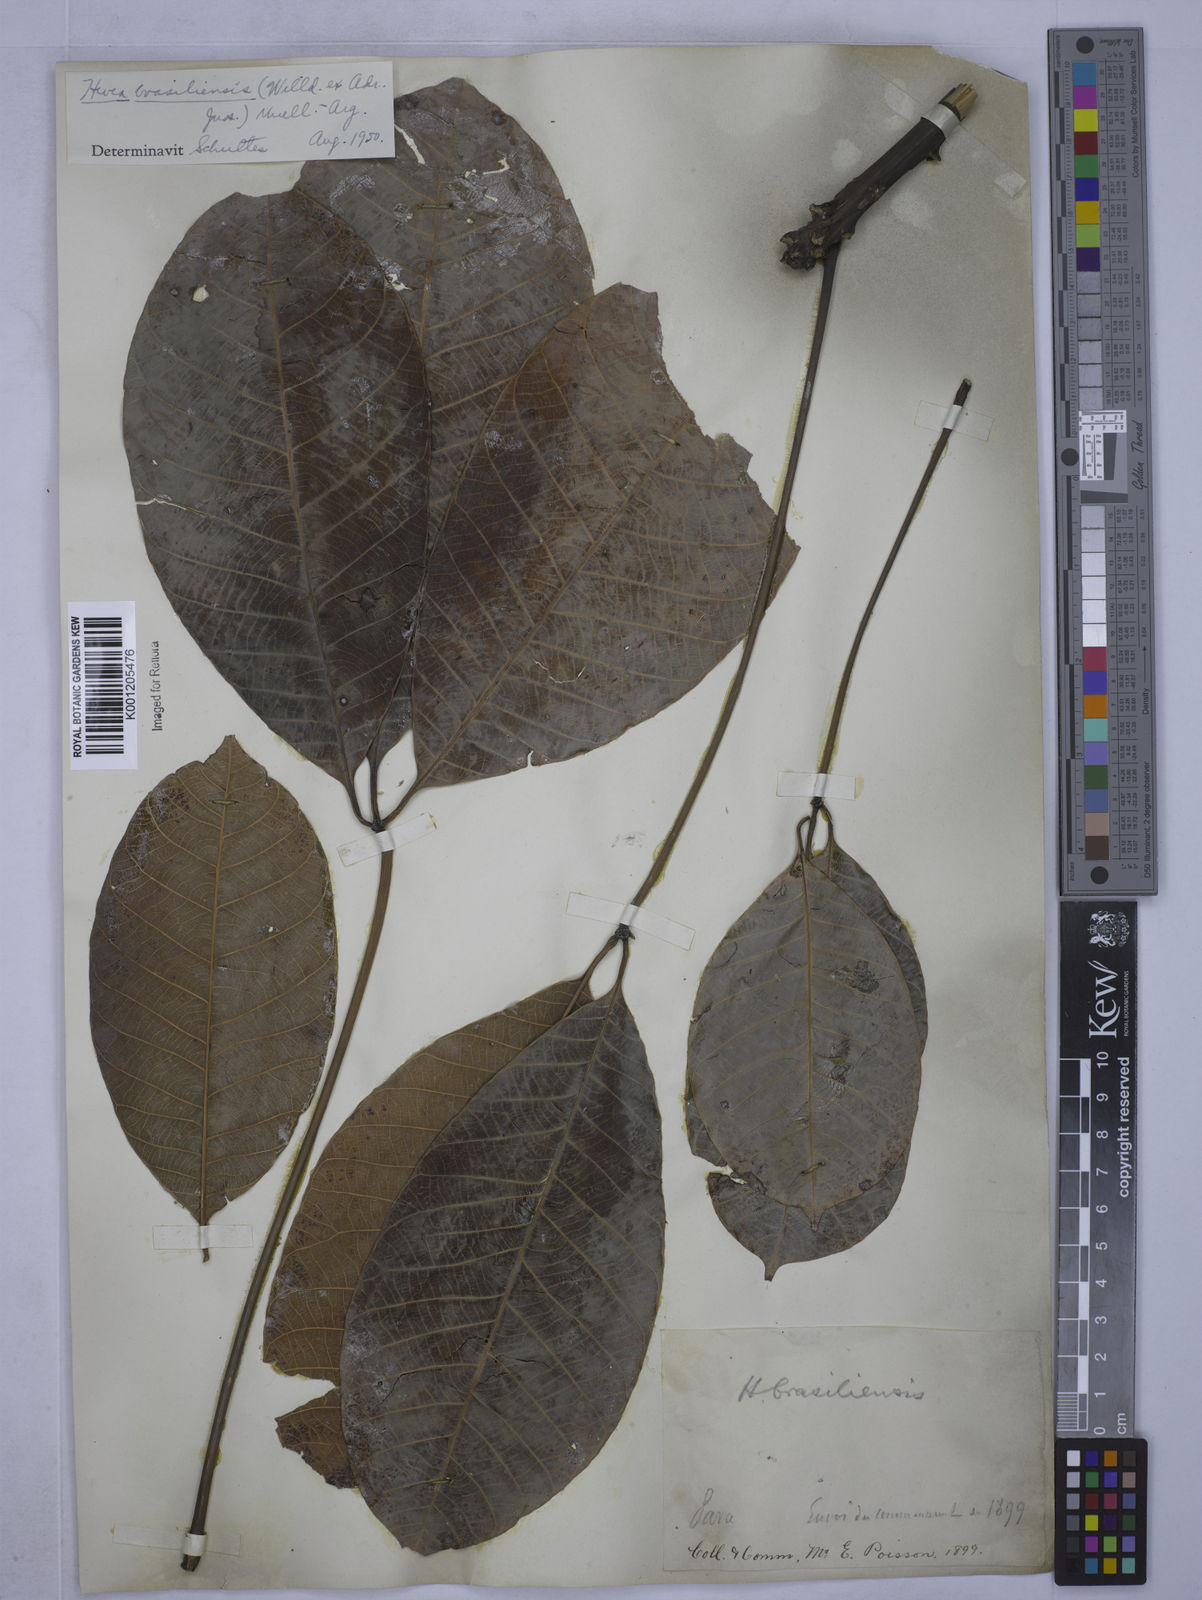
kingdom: Plantae
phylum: Tracheophyta
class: Magnoliopsida
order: Malpighiales
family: Euphorbiaceae
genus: Hevea
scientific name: Hevea
